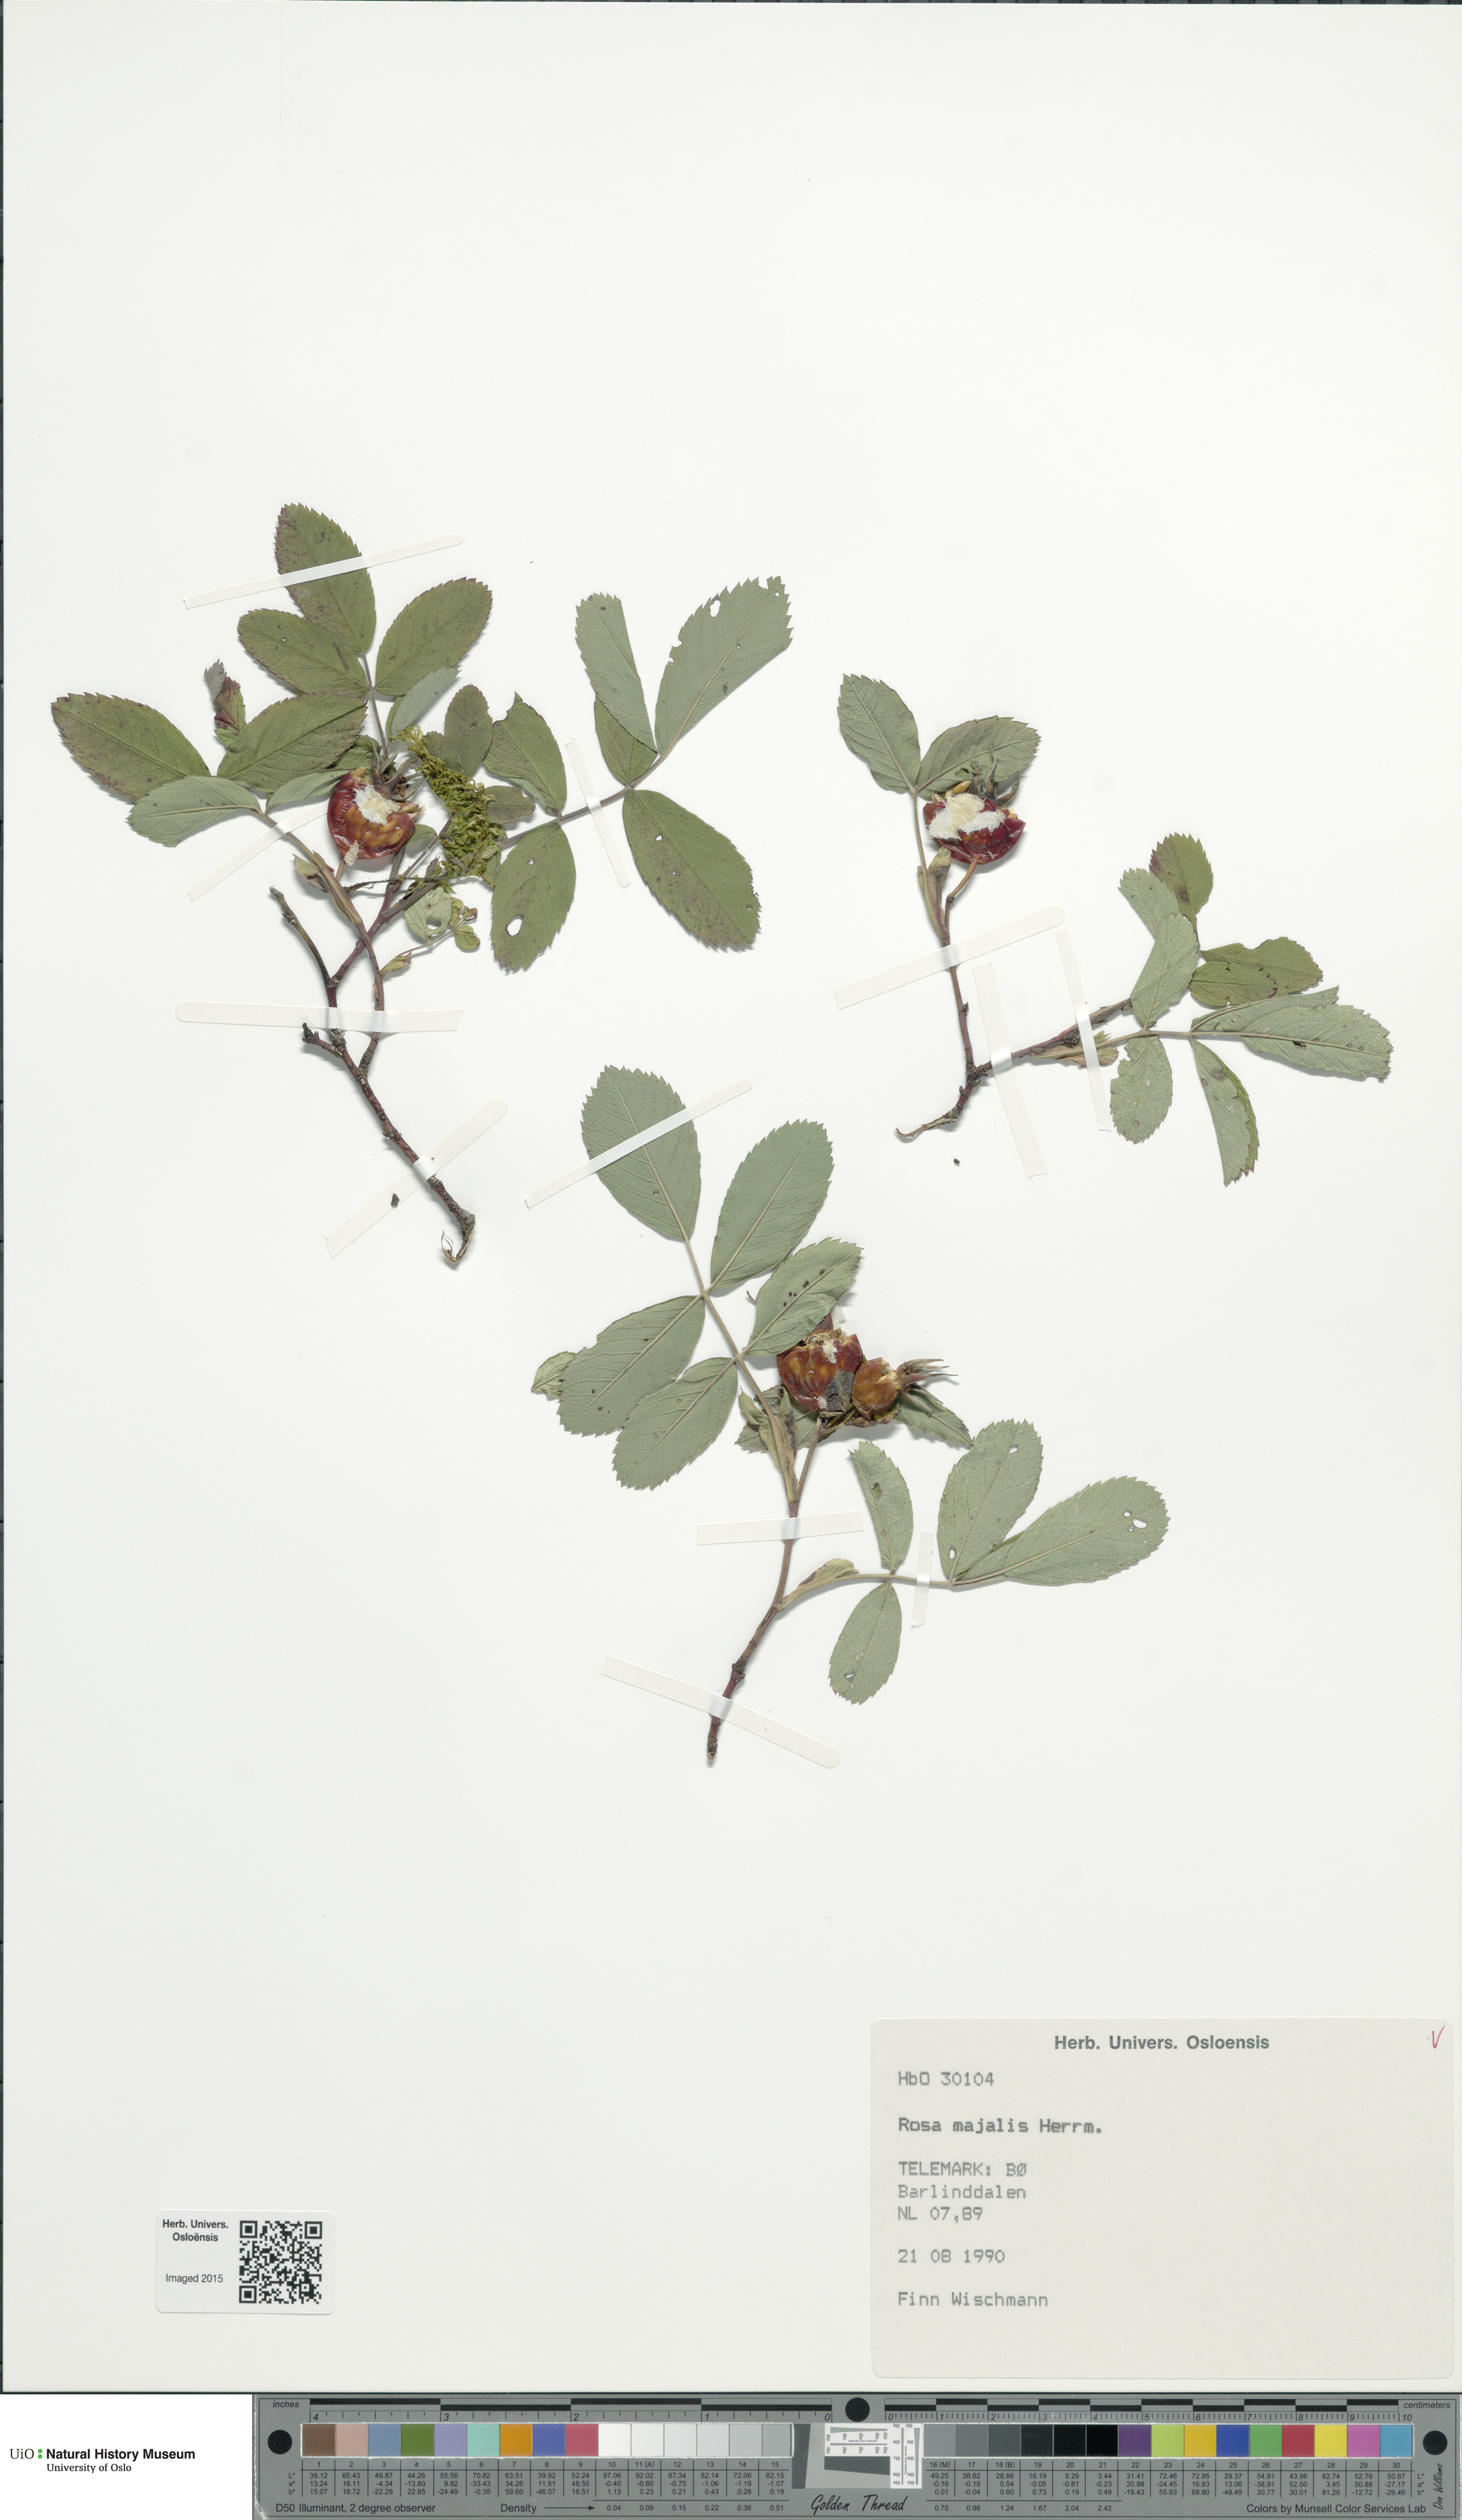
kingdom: Plantae
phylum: Tracheophyta
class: Magnoliopsida
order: Rosales
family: Rosaceae
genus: Rosa
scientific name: Rosa majalis
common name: Cinnamon rose
